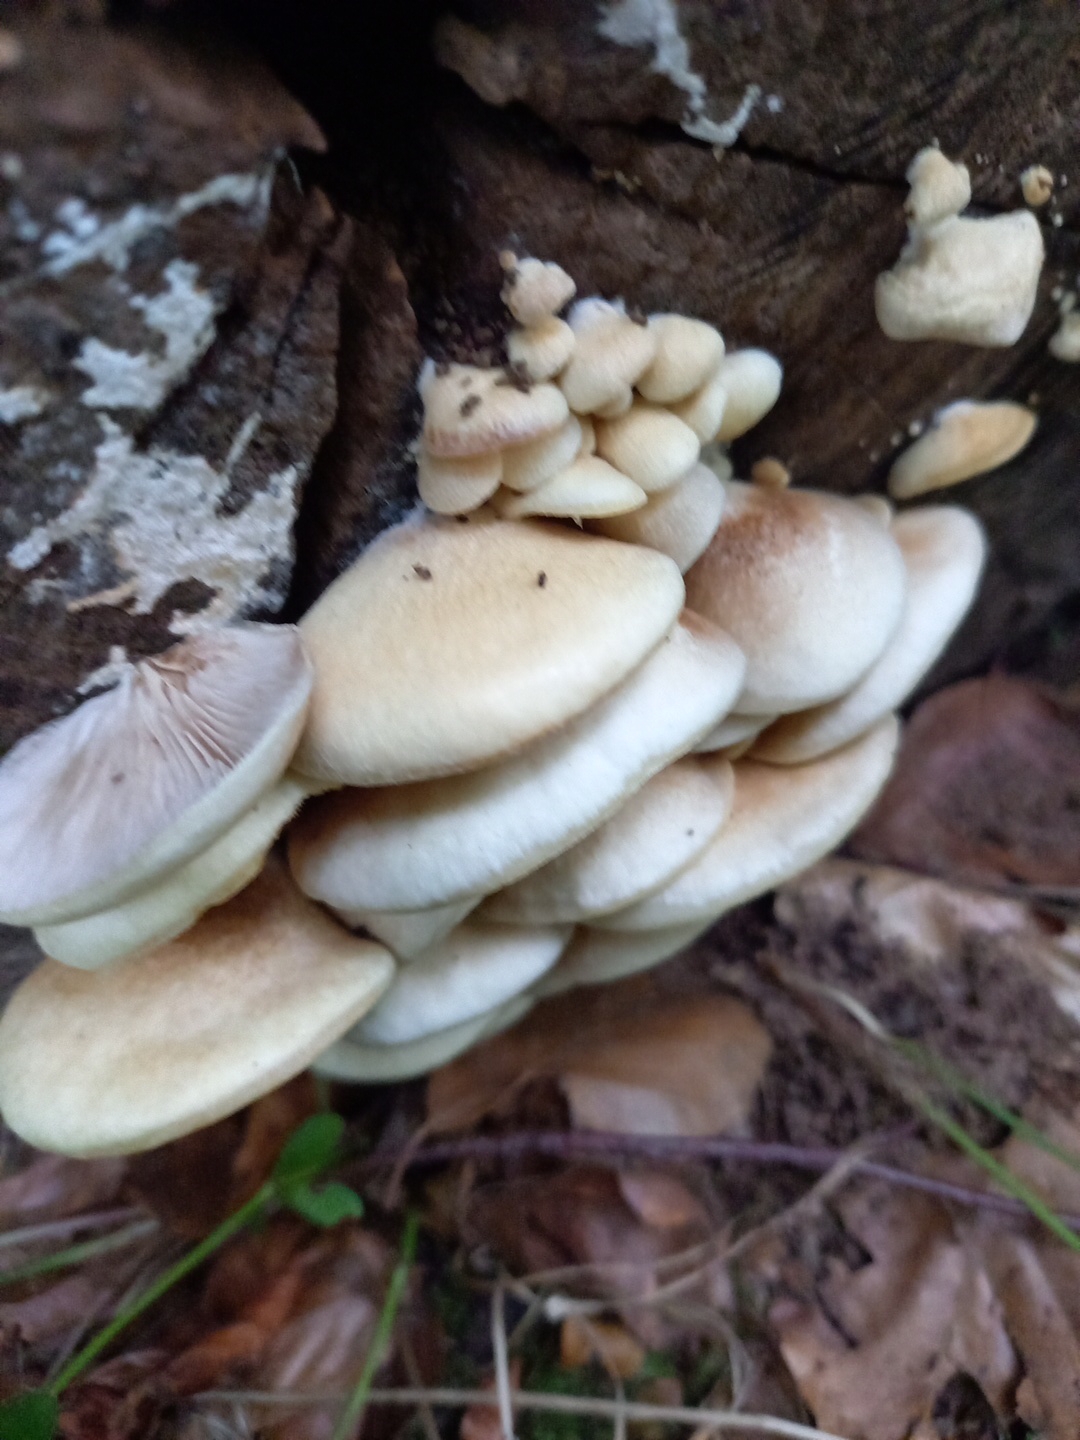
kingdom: Fungi
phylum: Basidiomycota
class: Agaricomycetes
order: Agaricales
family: Crepidotaceae
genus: Crepidotus
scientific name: Crepidotus mollis
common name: blød muslingesvamp
